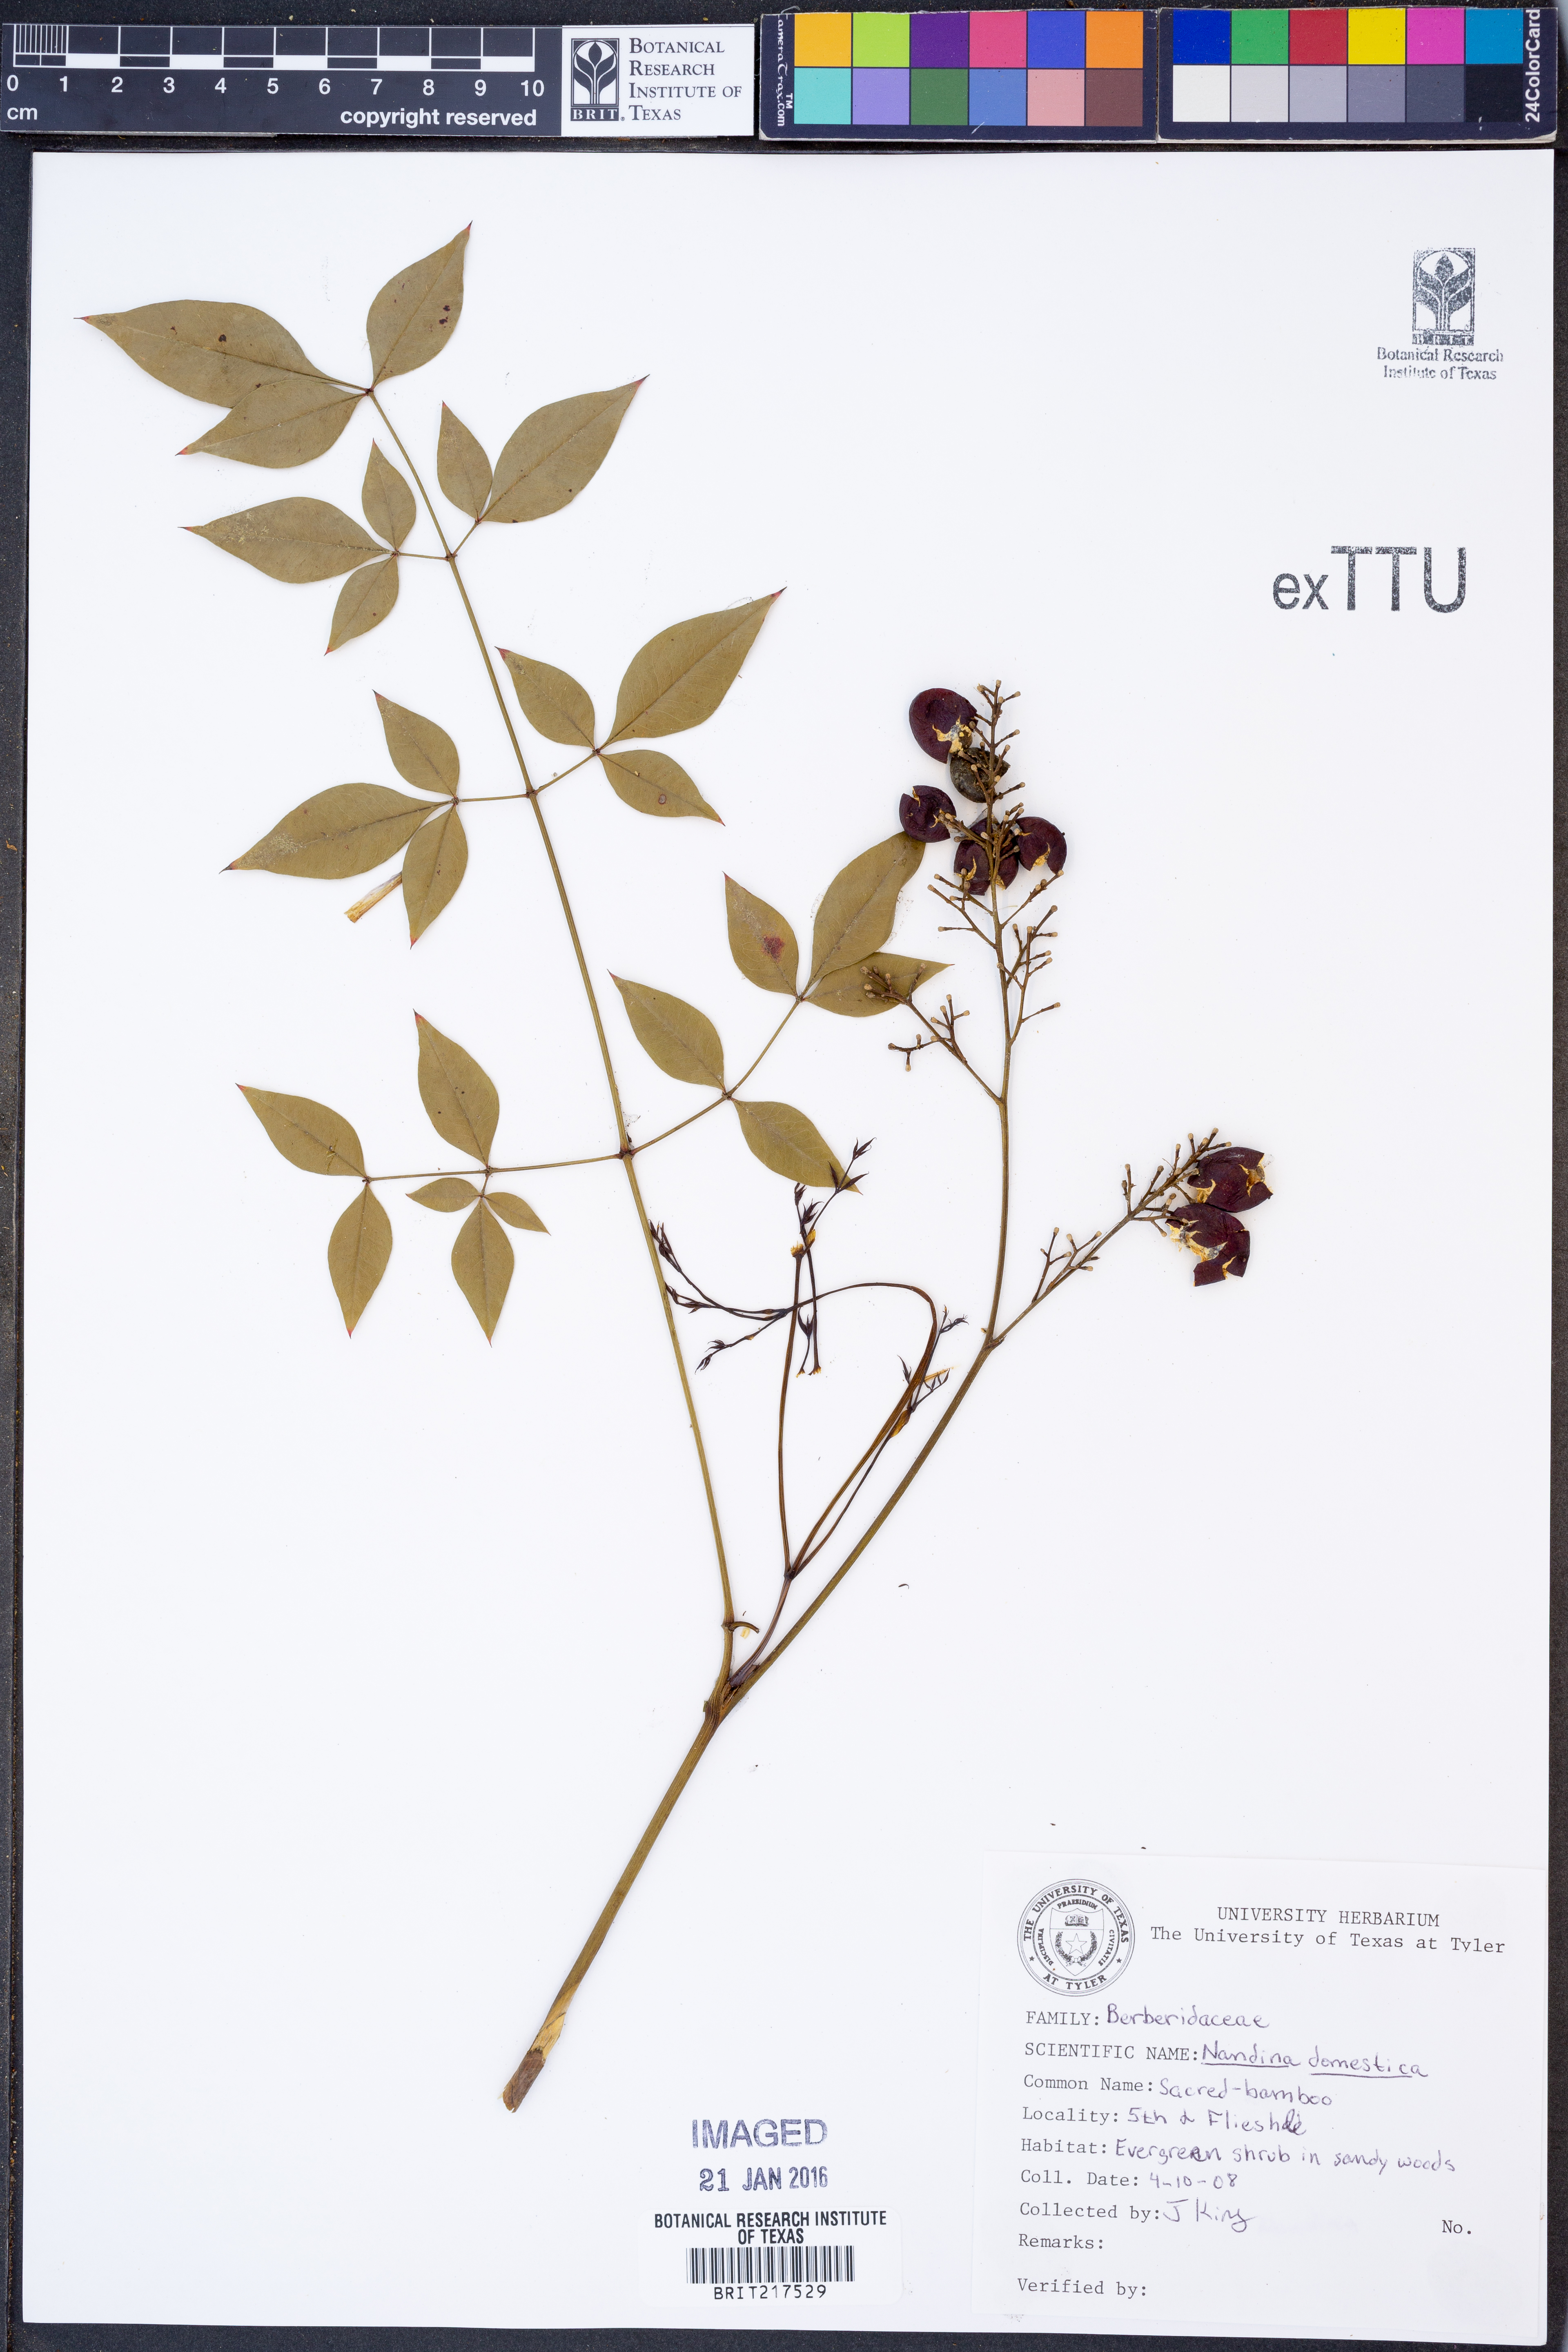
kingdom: Plantae
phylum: Tracheophyta
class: Magnoliopsida
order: Ranunculales
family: Berberidaceae
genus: Nandina
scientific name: Nandina domestica
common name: Sacred bamboo
